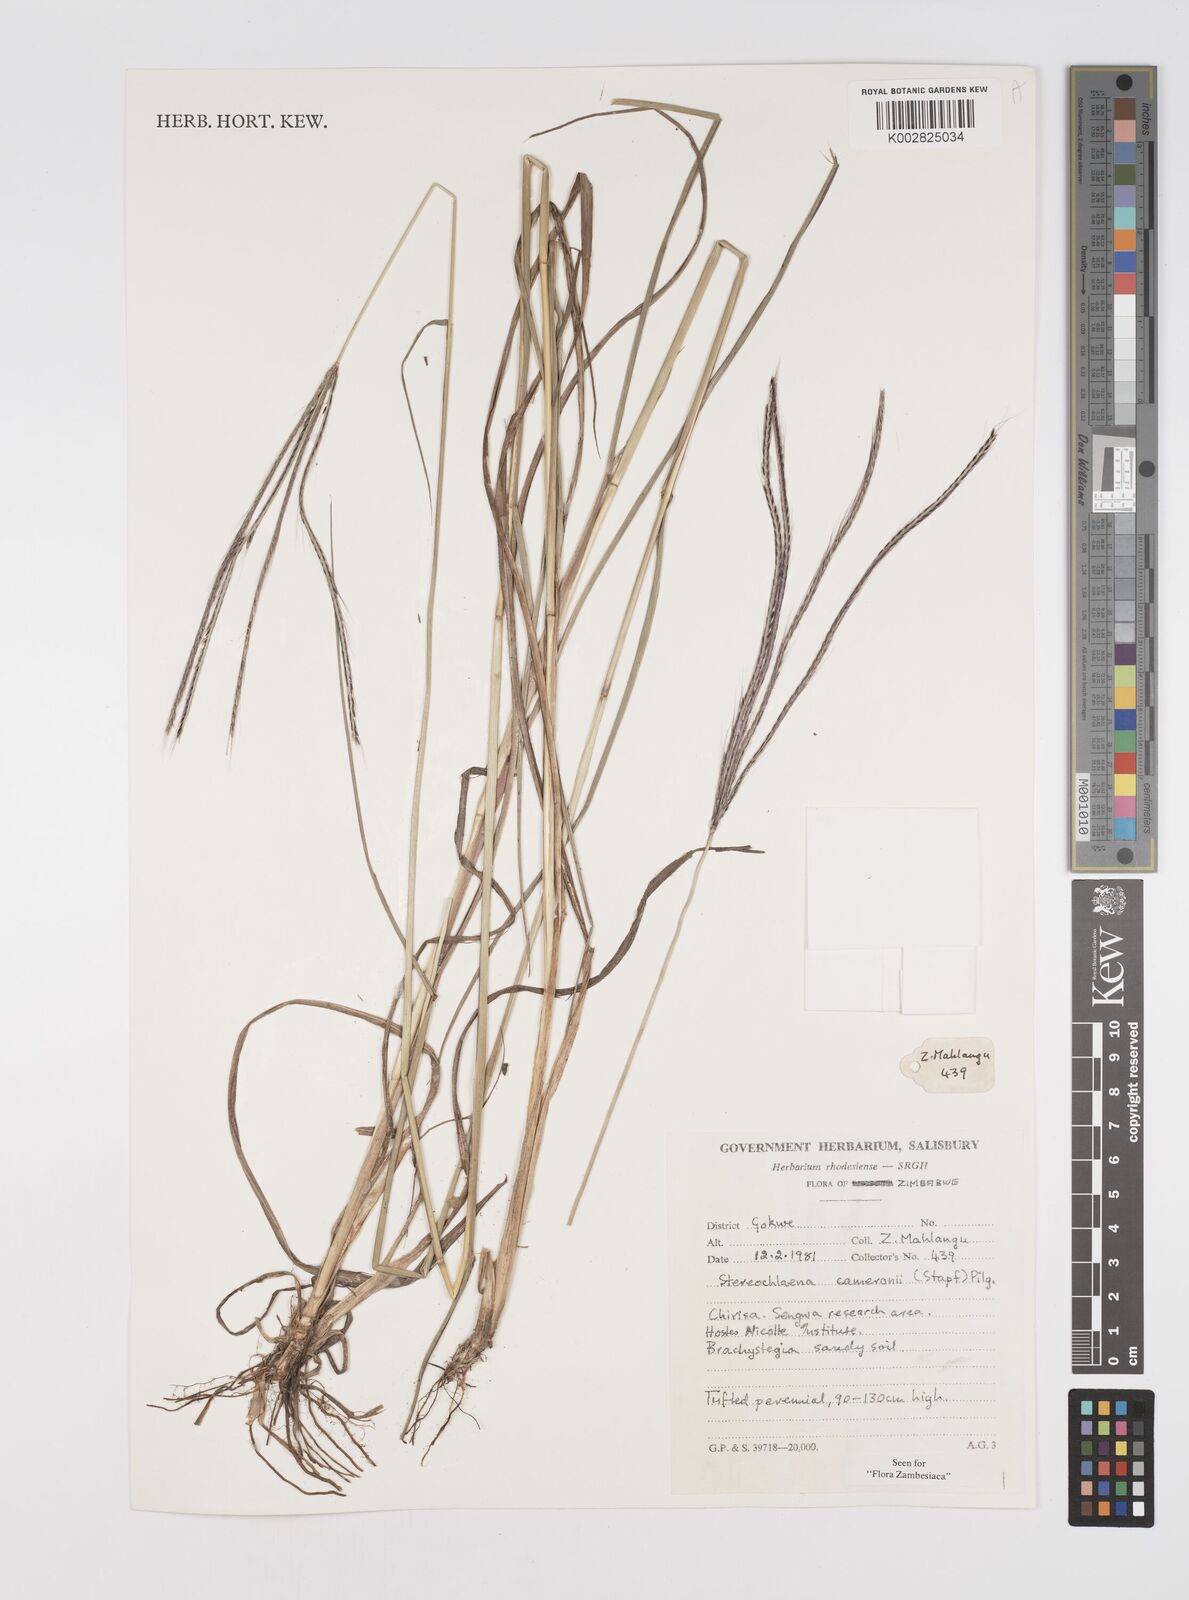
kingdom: Plantae
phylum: Tracheophyta
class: Liliopsida
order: Poales
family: Poaceae
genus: Stereochlaena
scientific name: Stereochlaena cameronii
